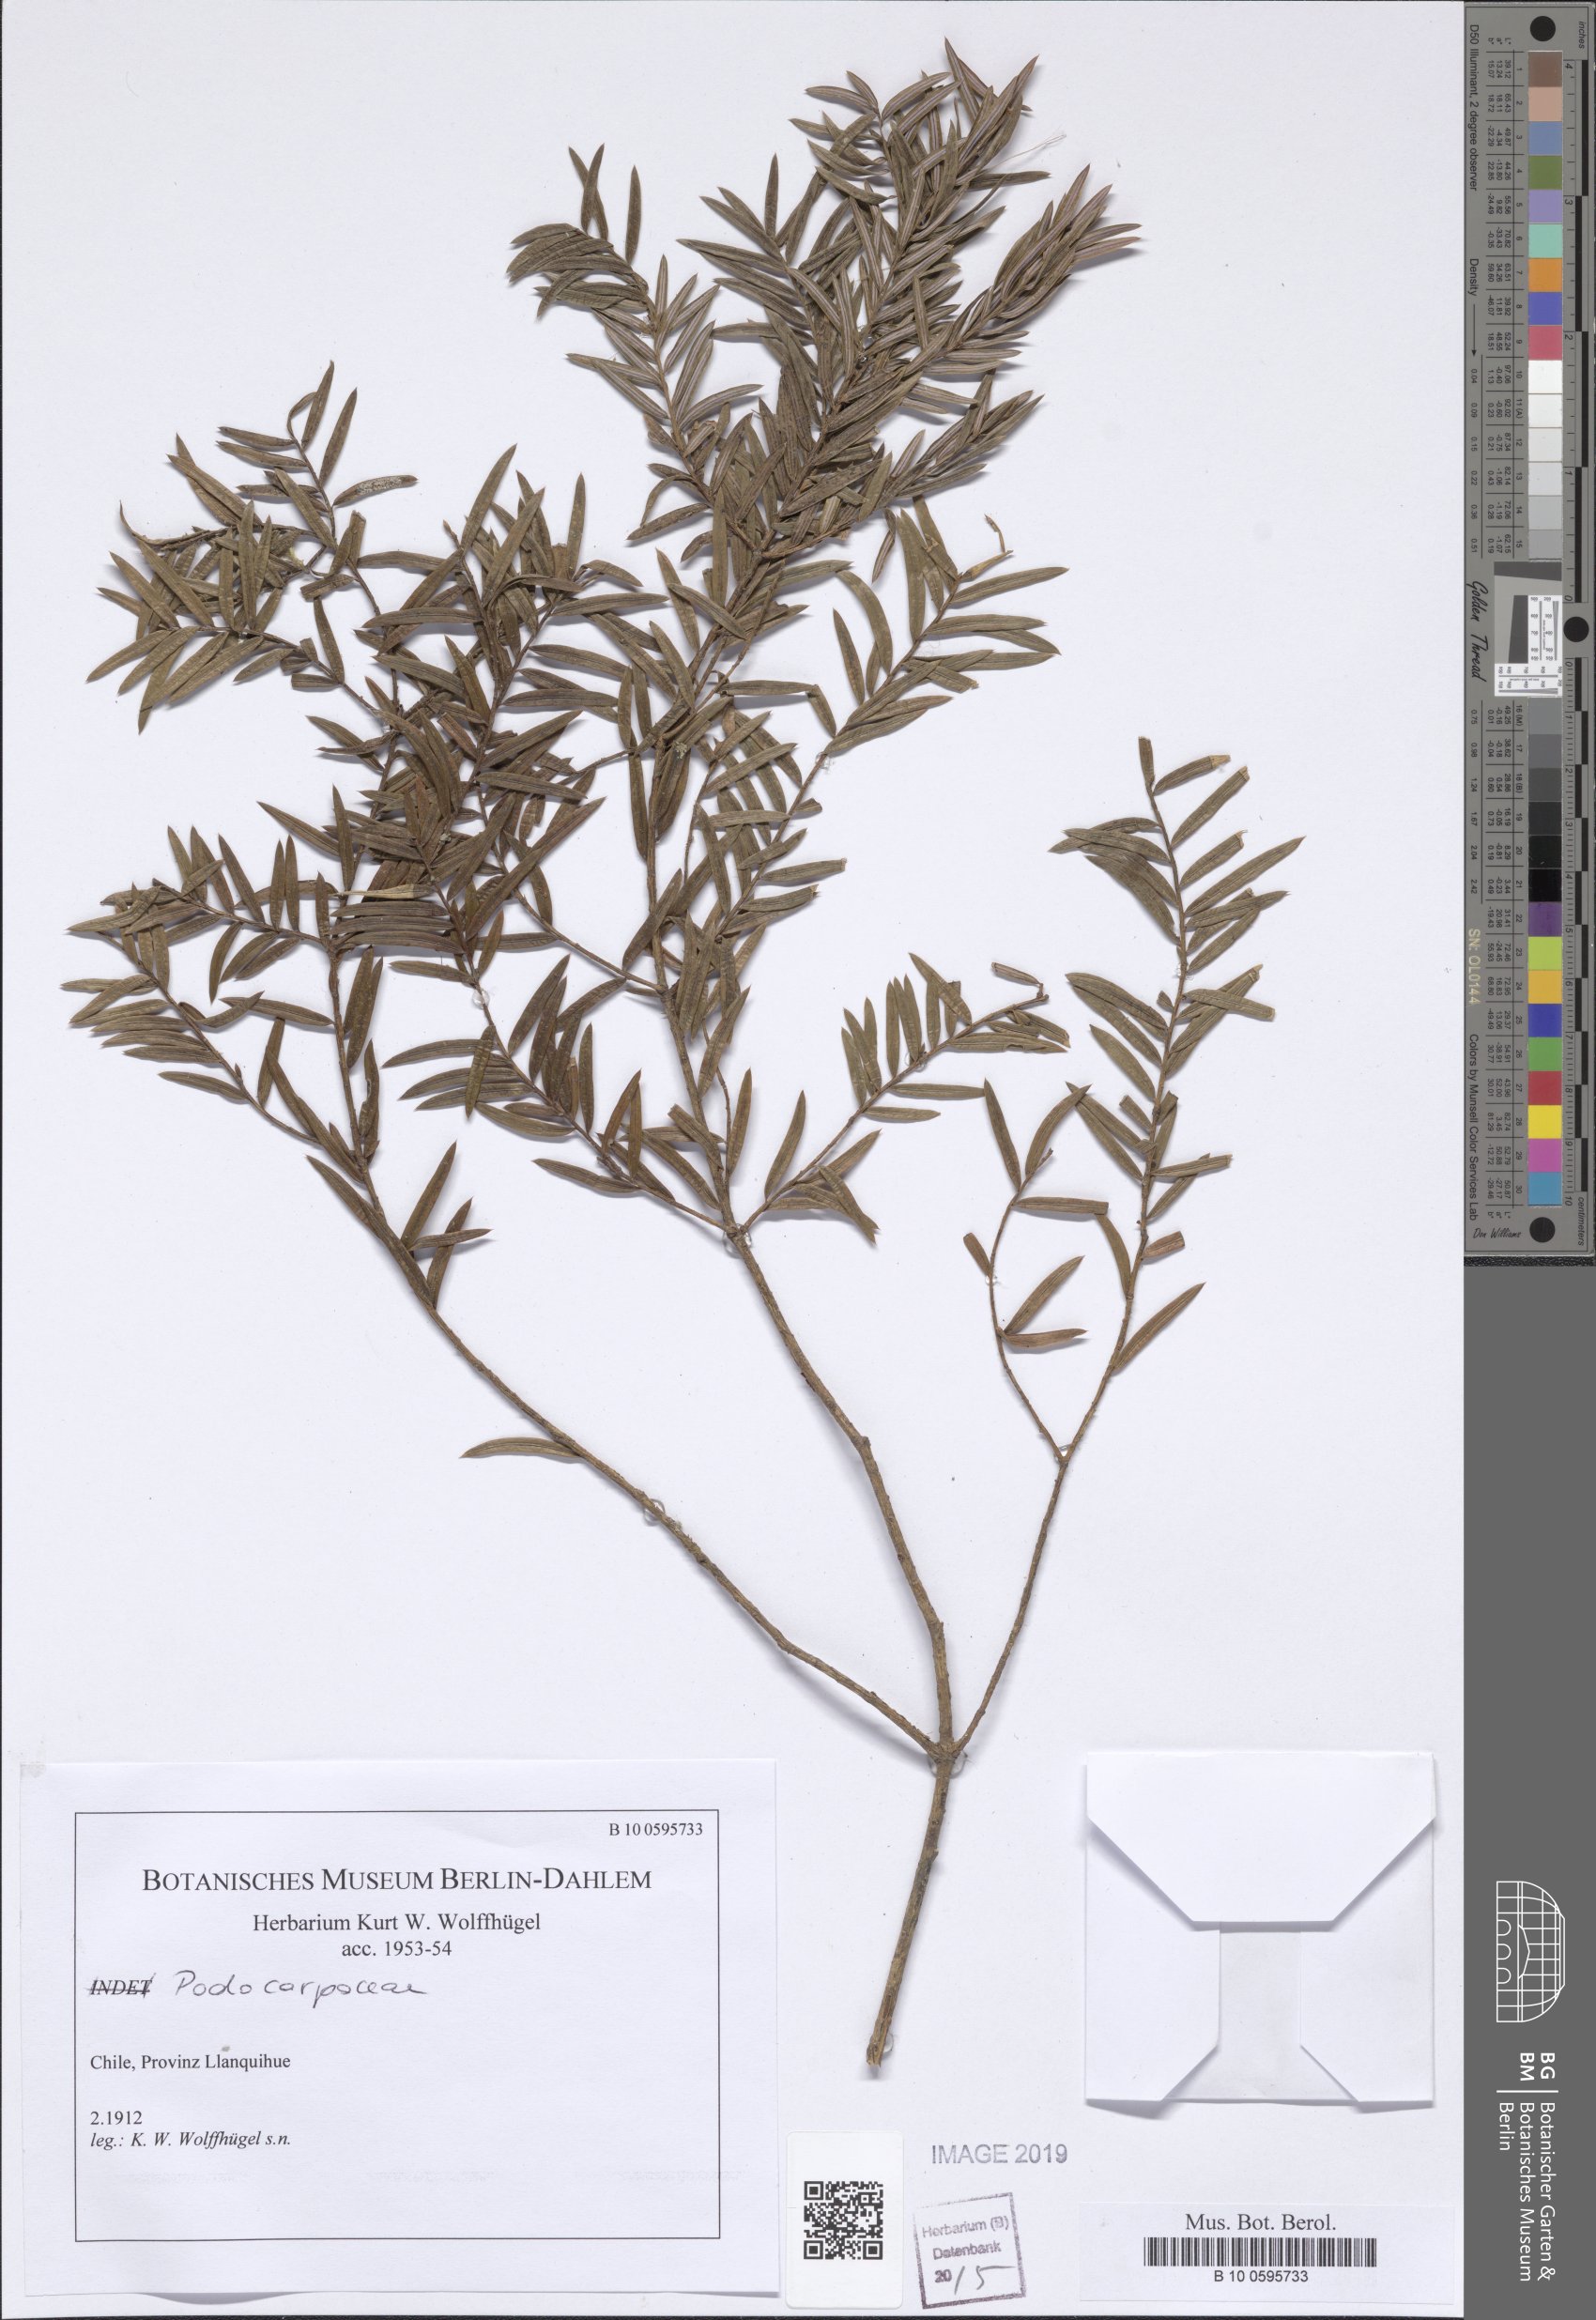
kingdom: Plantae
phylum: Tracheophyta
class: Pinopsida
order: Pinales
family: Podocarpaceae
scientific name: Podocarpaceae
